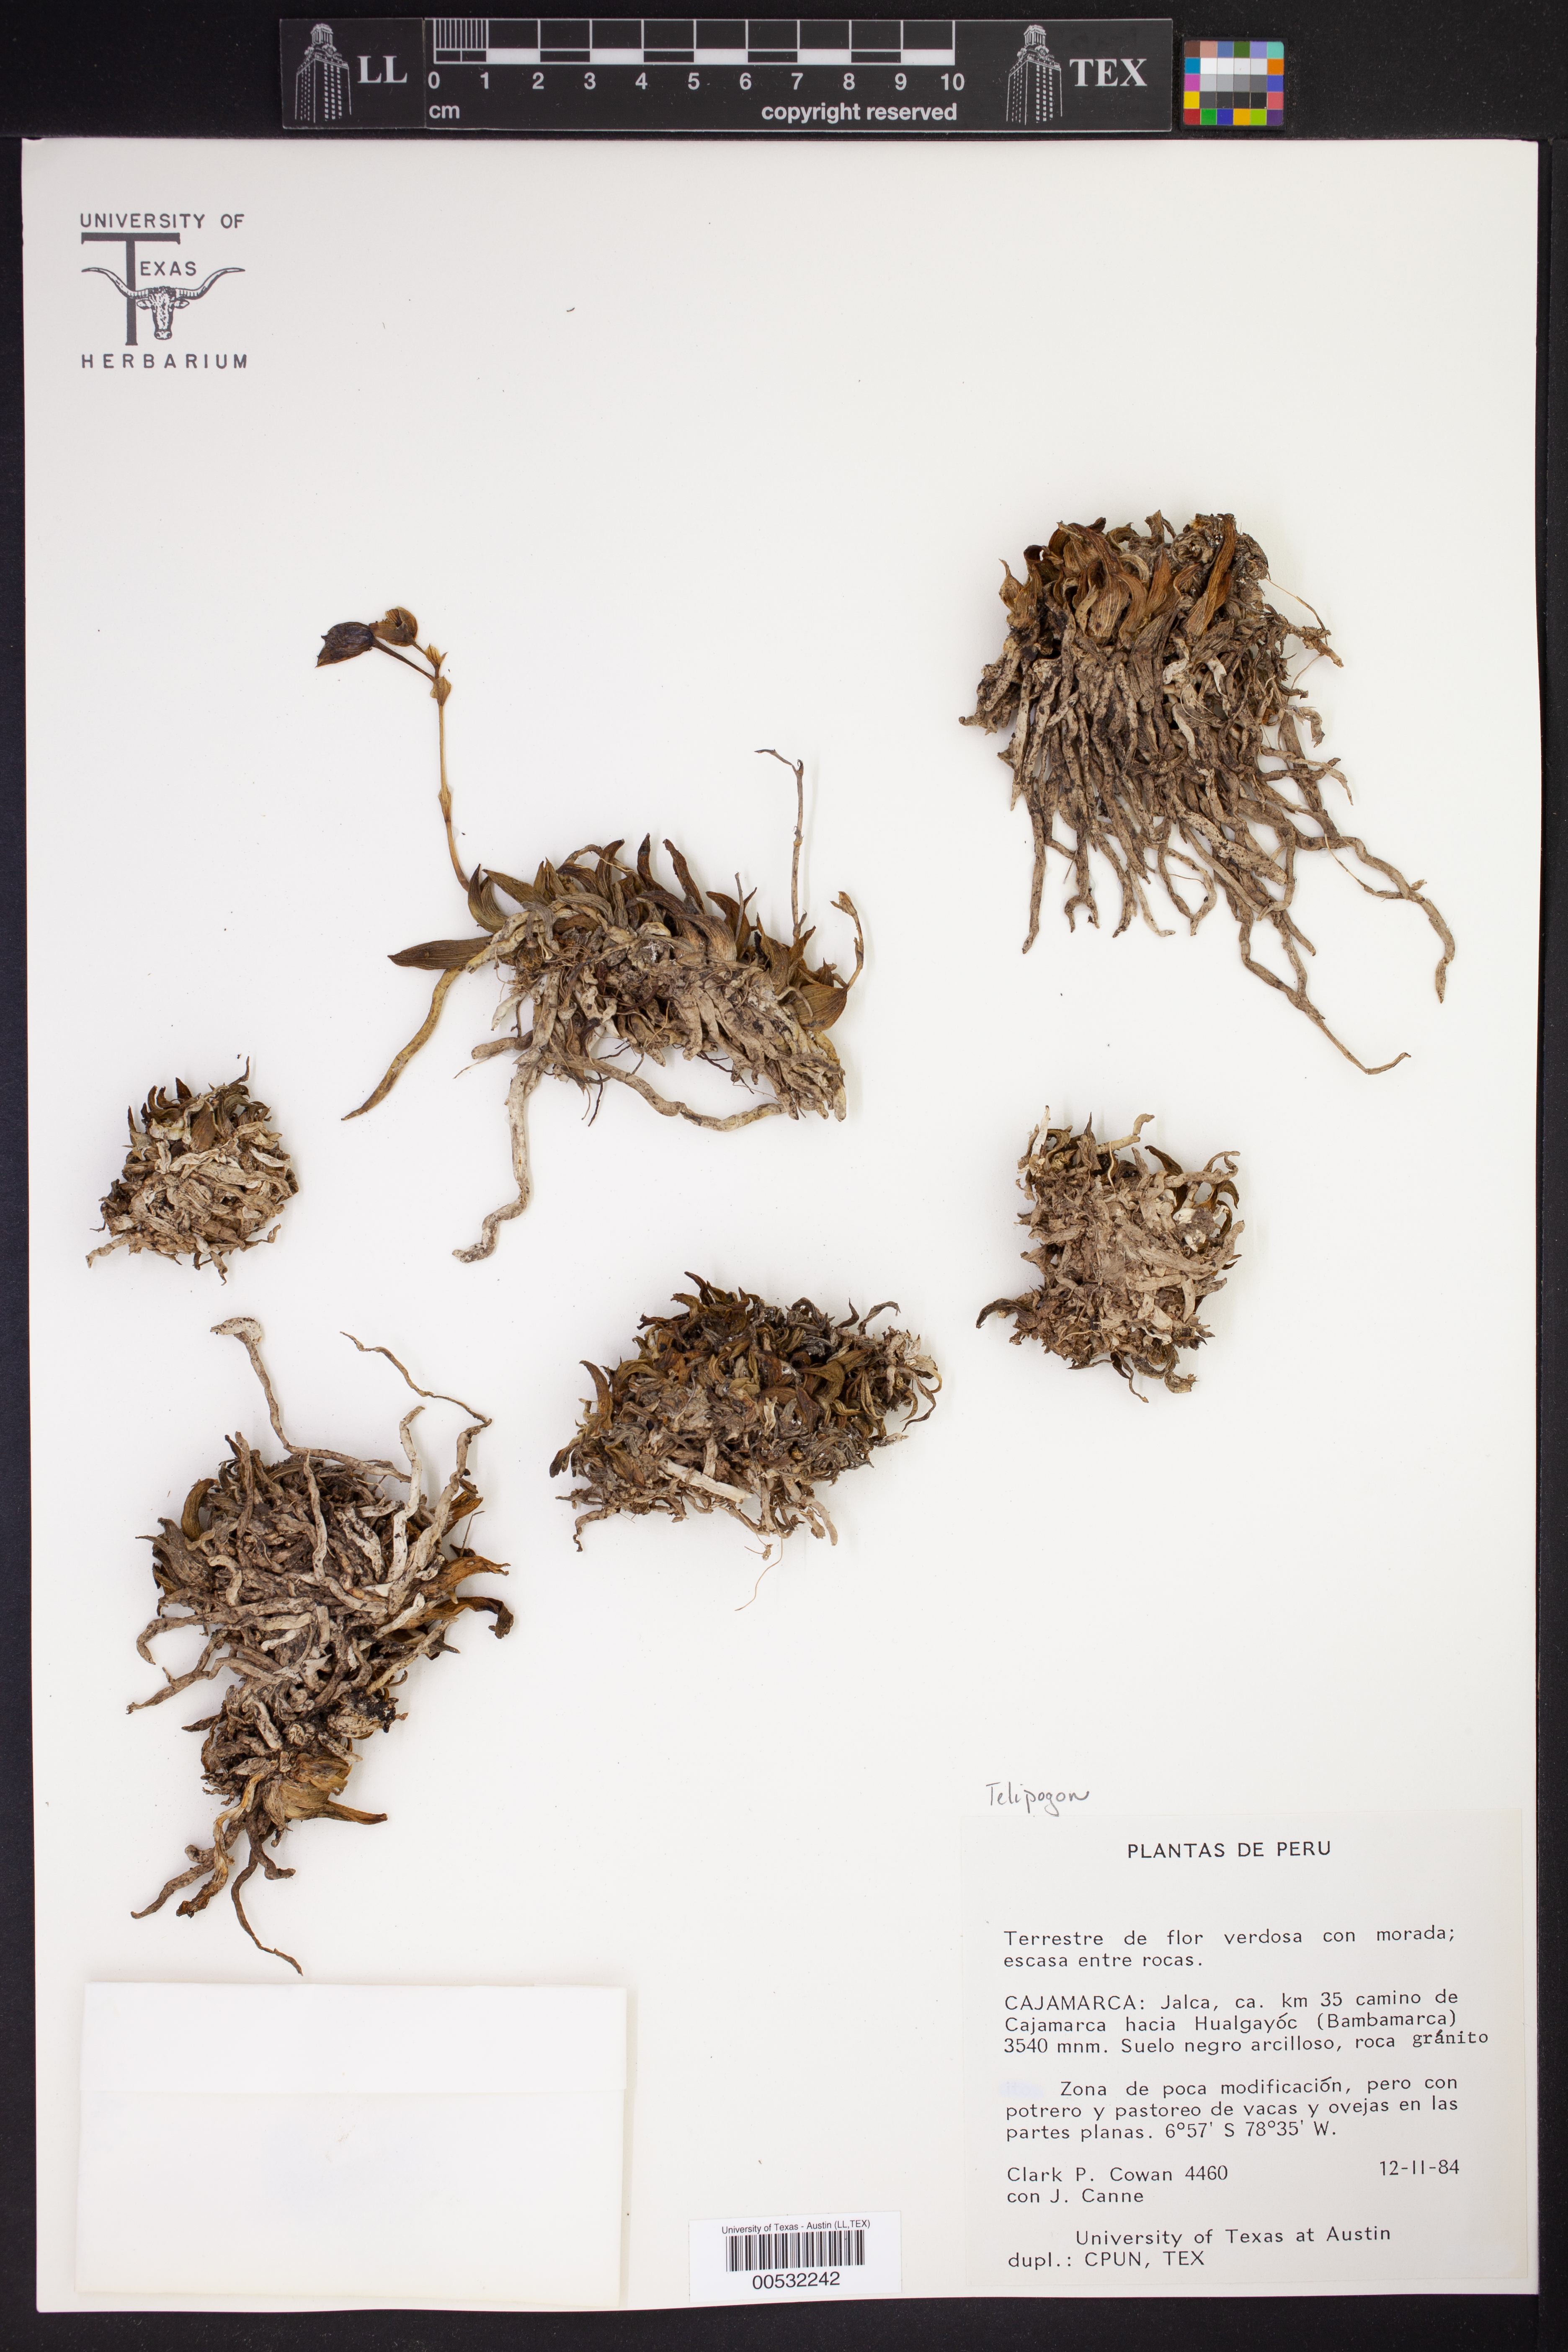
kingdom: Plantae
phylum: Tracheophyta
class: Liliopsida
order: Asparagales
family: Orchidaceae
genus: Telipogon
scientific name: Telipogon
